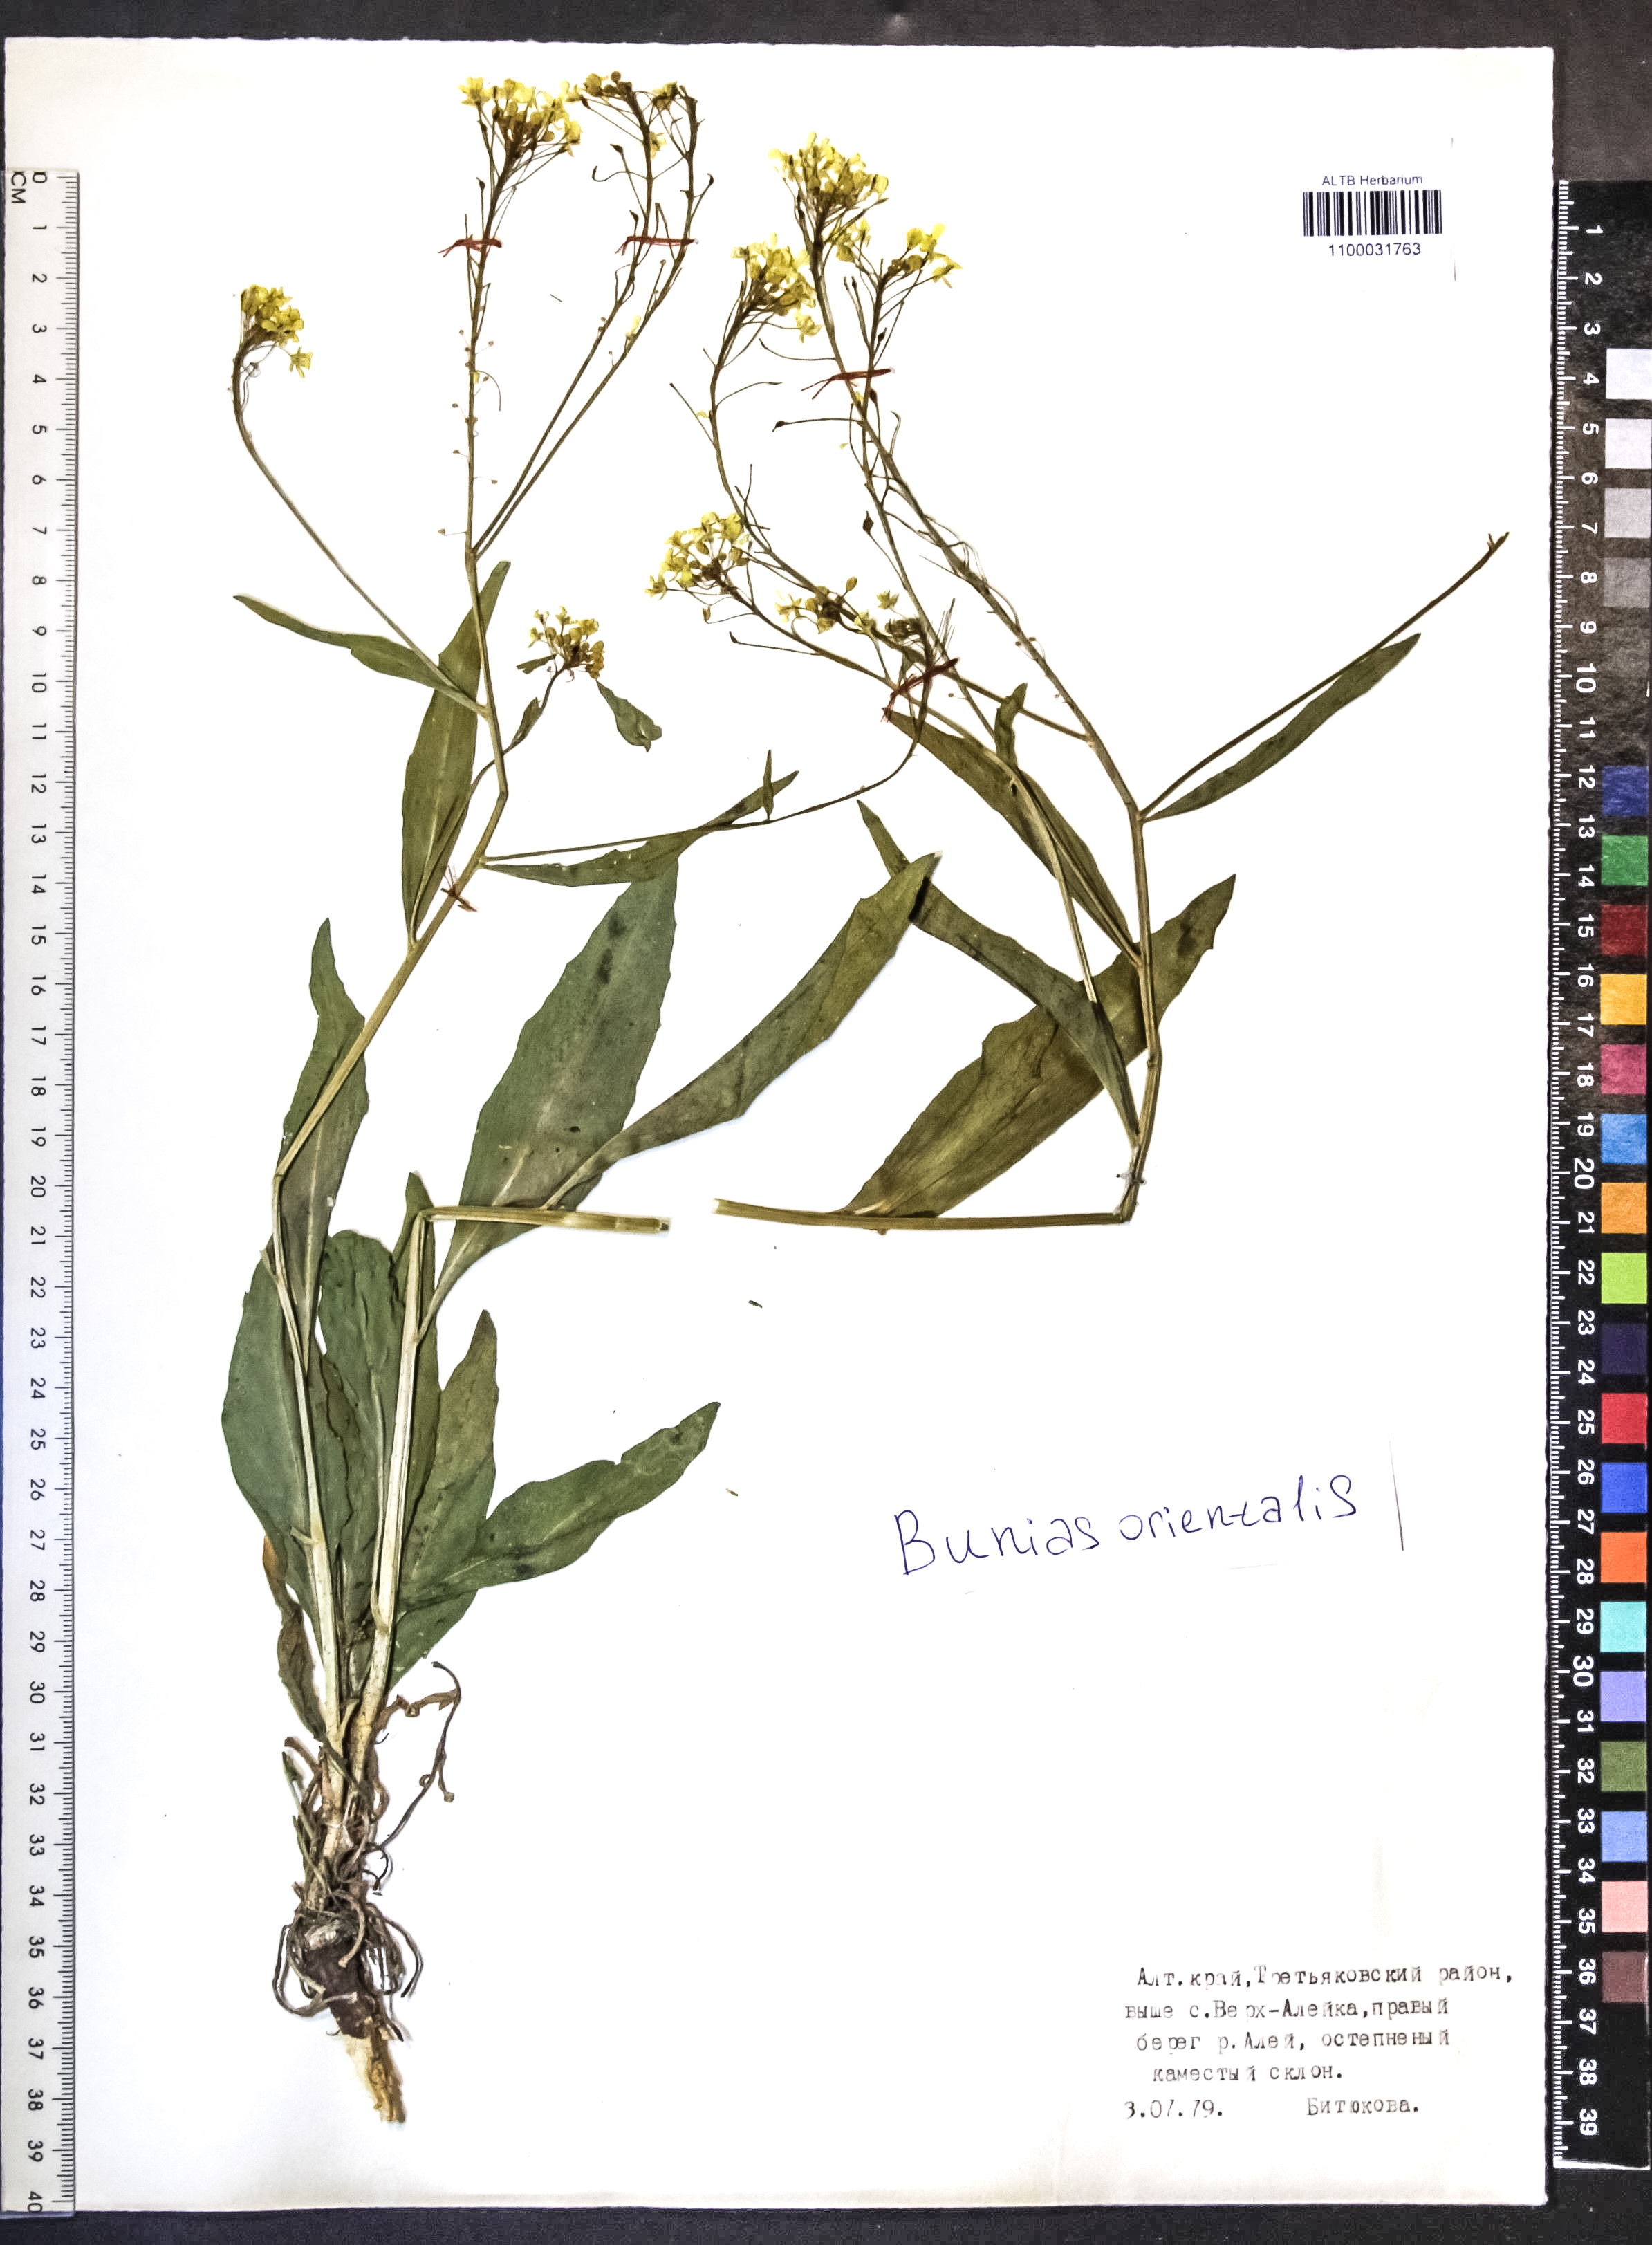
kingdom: Plantae
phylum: Tracheophyta
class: Magnoliopsida
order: Brassicales
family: Brassicaceae
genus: Bunias
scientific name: Bunias orientalis
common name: Warty-cabbage
